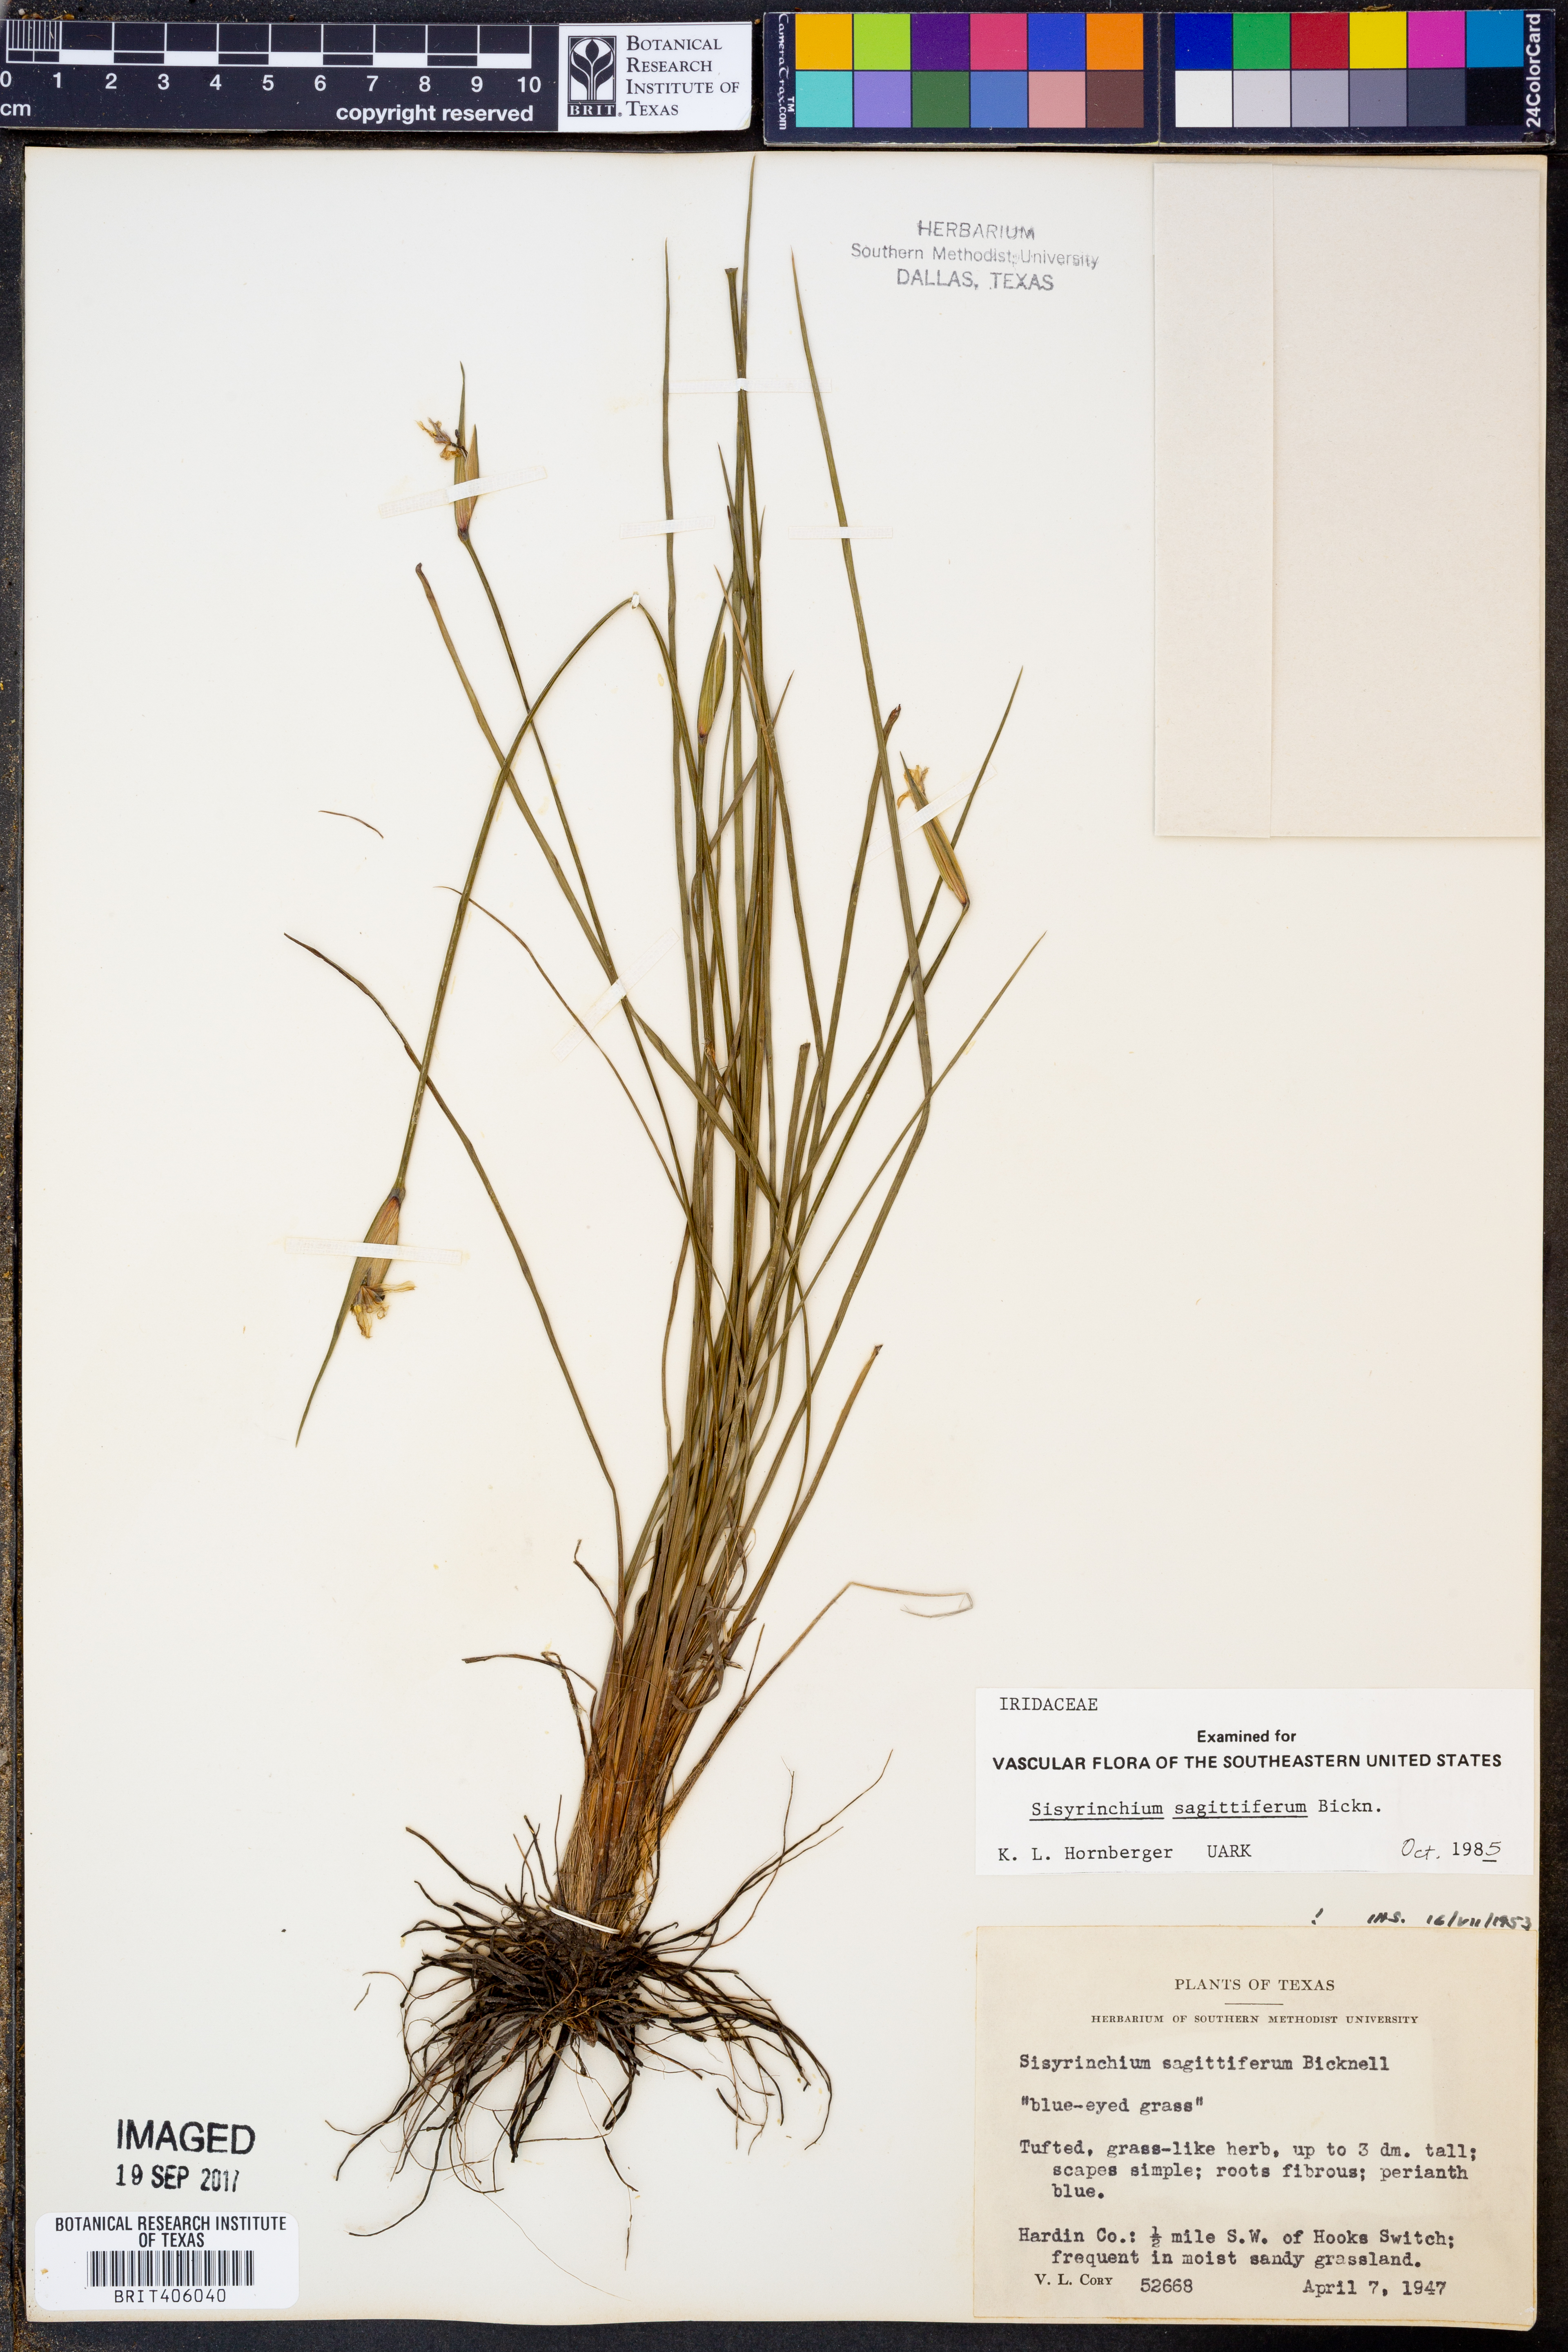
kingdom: Plantae
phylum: Tracheophyta
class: Liliopsida
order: Asparagales
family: Iridaceae
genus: Sisyrinchium
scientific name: Sisyrinchium sagittiferum
